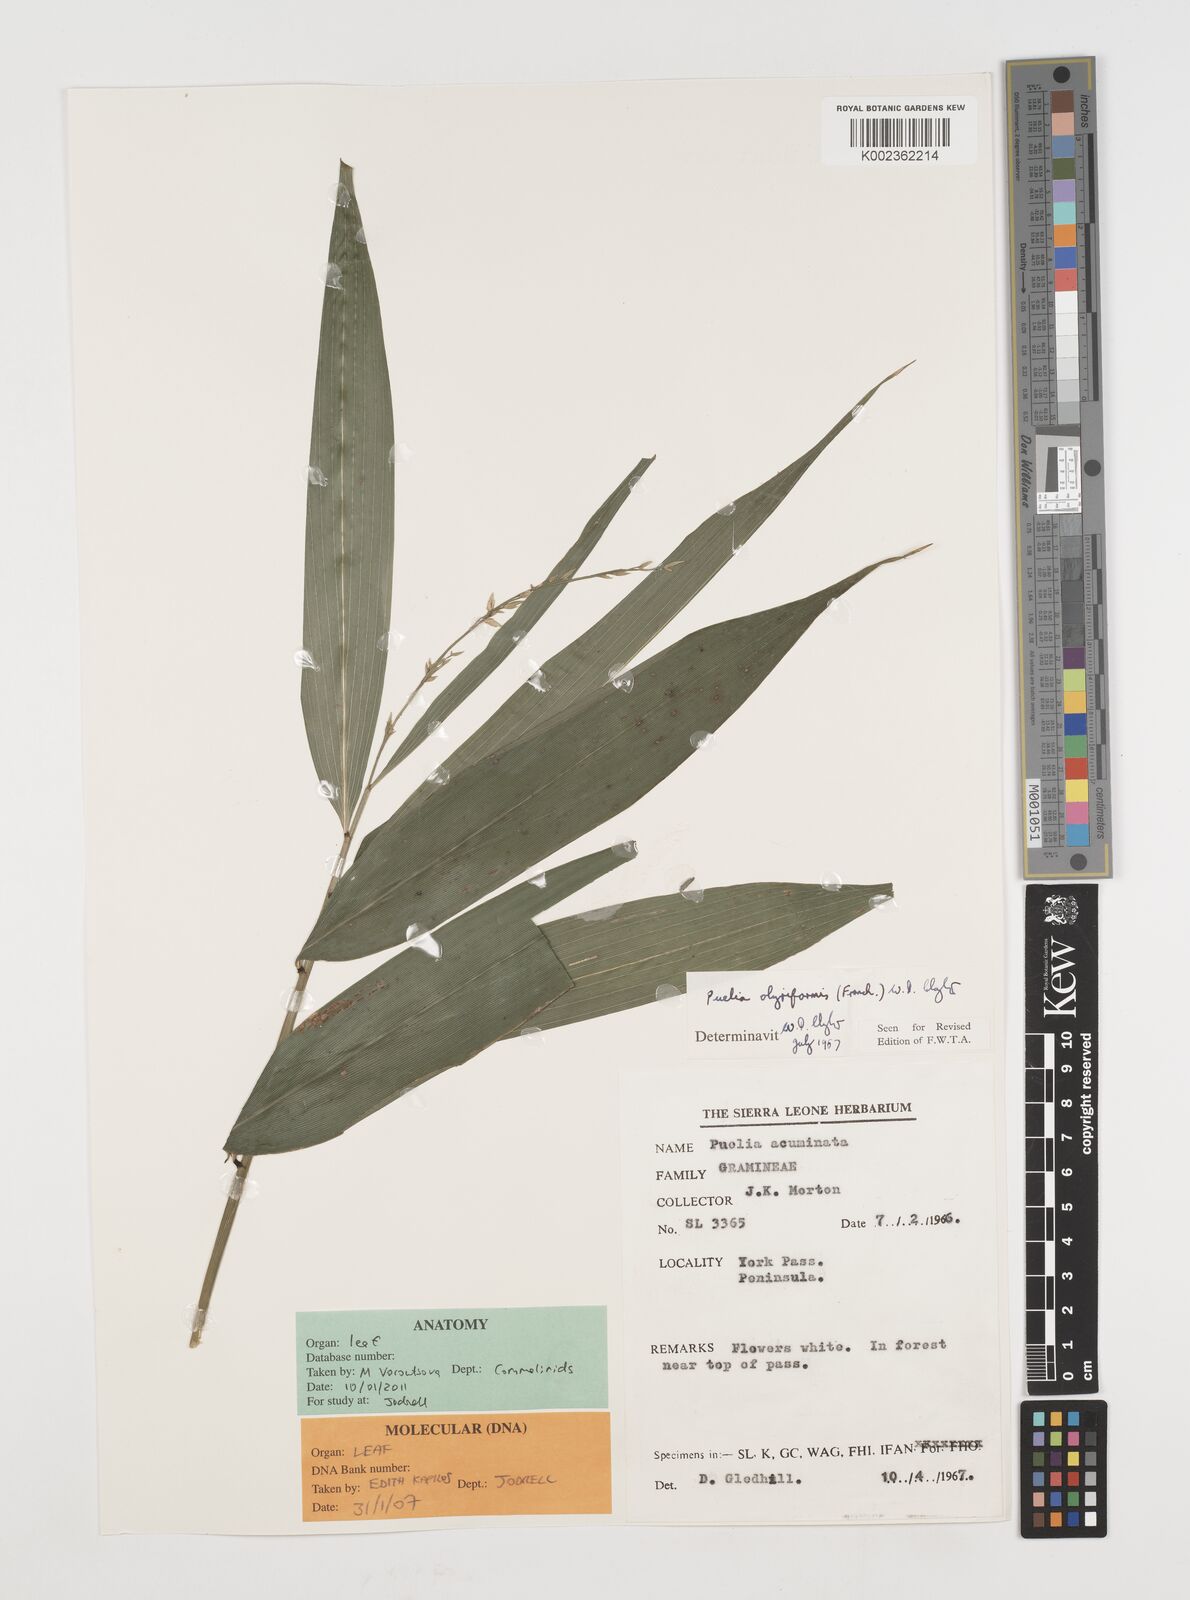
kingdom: Plantae
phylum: Tracheophyta
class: Liliopsida
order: Poales
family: Poaceae
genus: Puelia
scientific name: Puelia olyriformis
